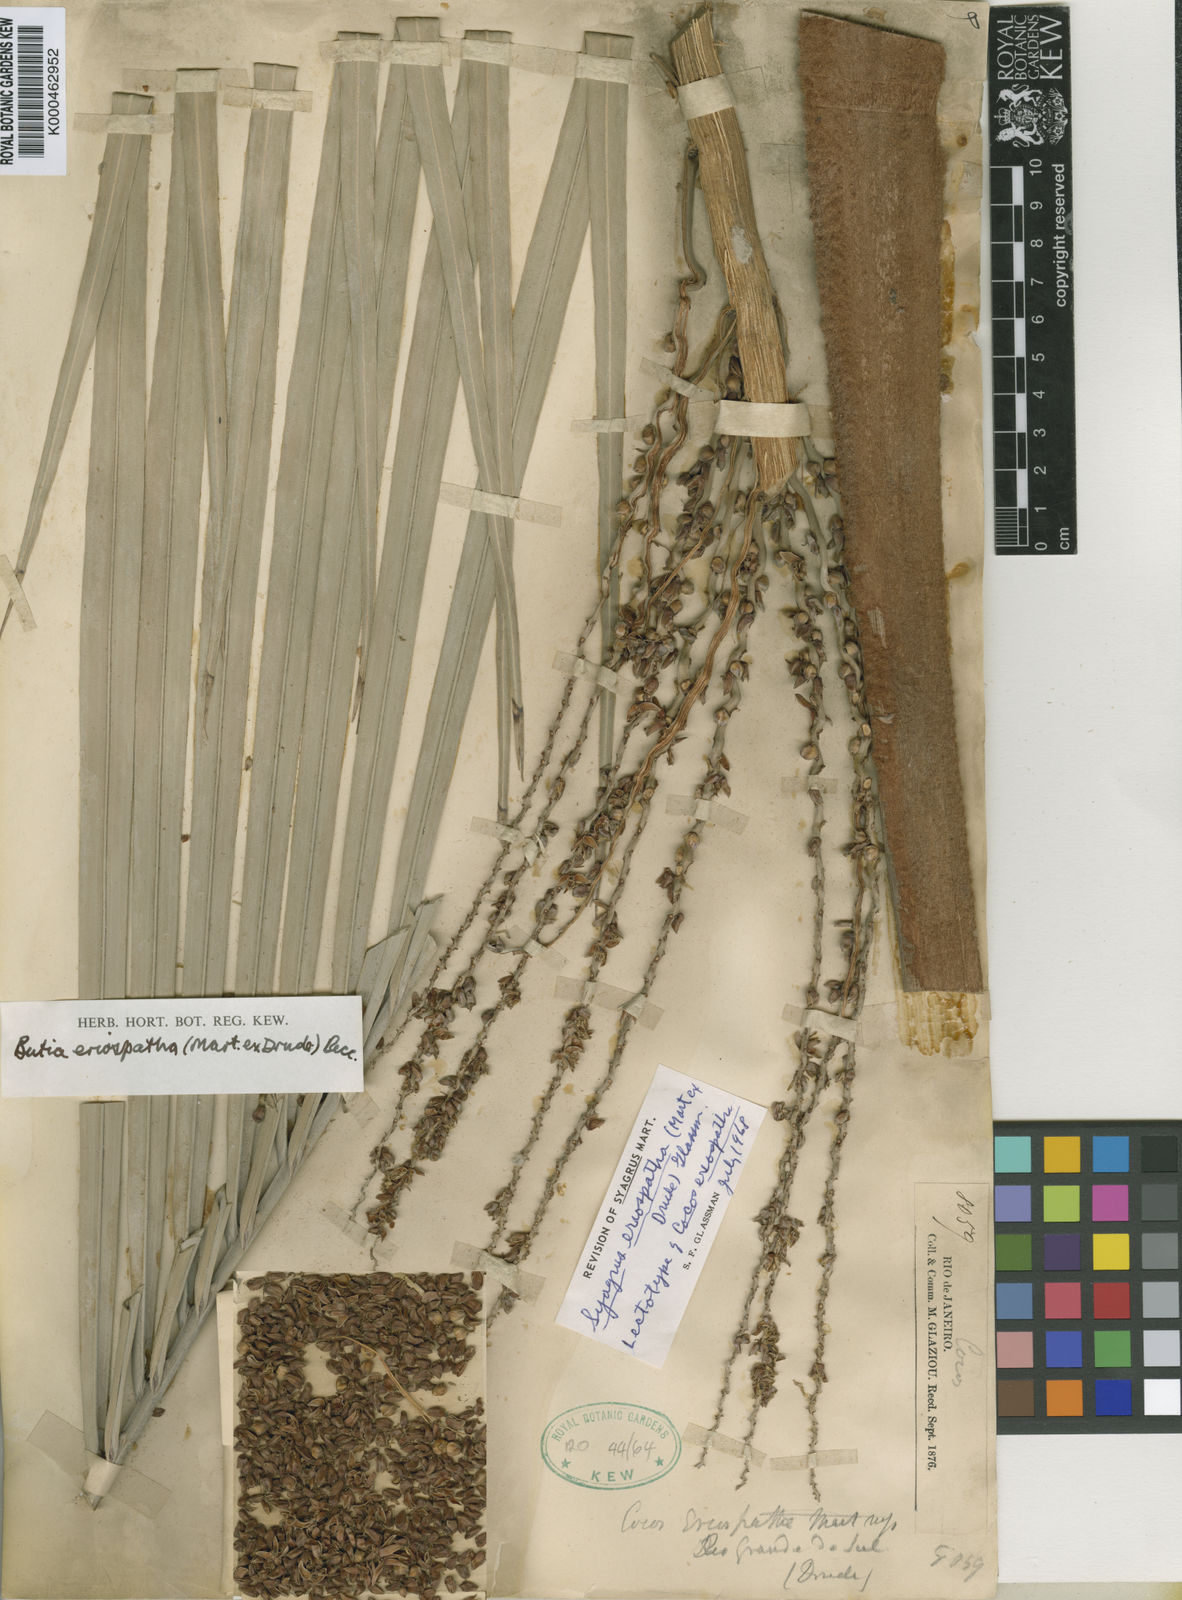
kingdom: Plantae
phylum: Tracheophyta
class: Liliopsida
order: Arecales
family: Arecaceae
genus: Butia
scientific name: Butia eriospatha
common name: Woolly jelly palm
